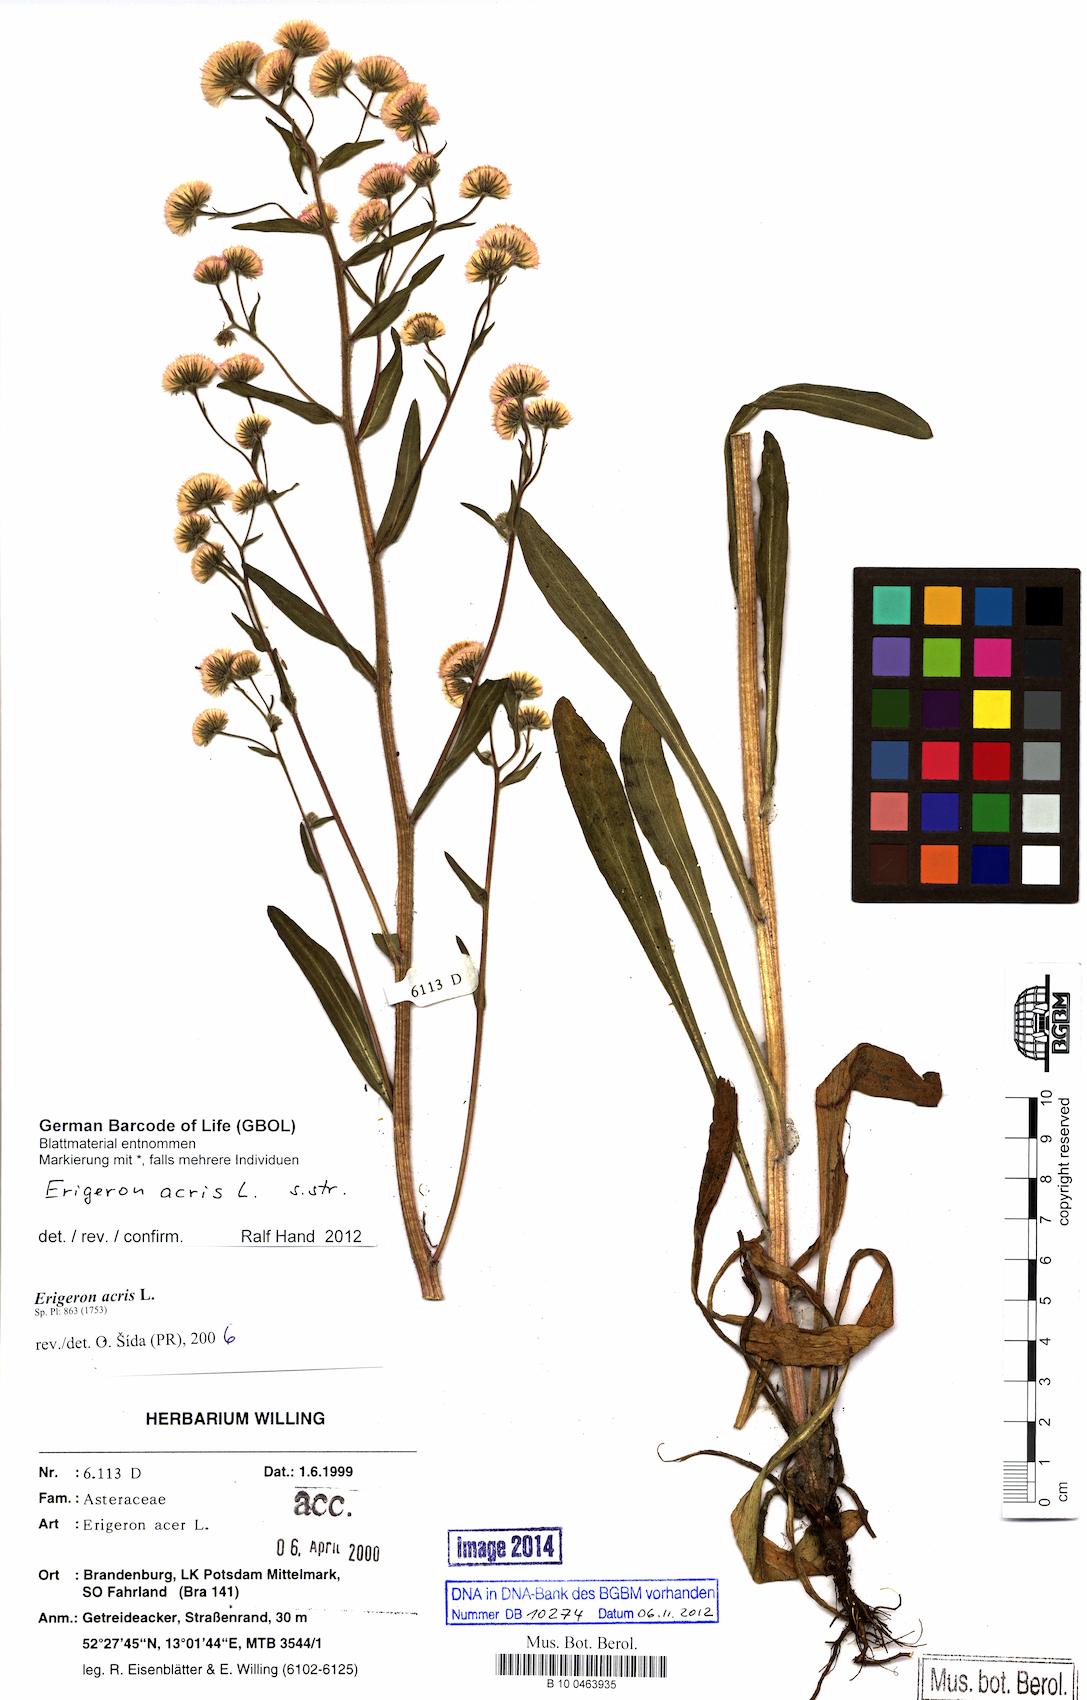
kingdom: Plantae
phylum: Tracheophyta
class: Magnoliopsida
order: Asterales
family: Asteraceae
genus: Erigeron
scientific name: Erigeron acris
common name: Blue fleabane
